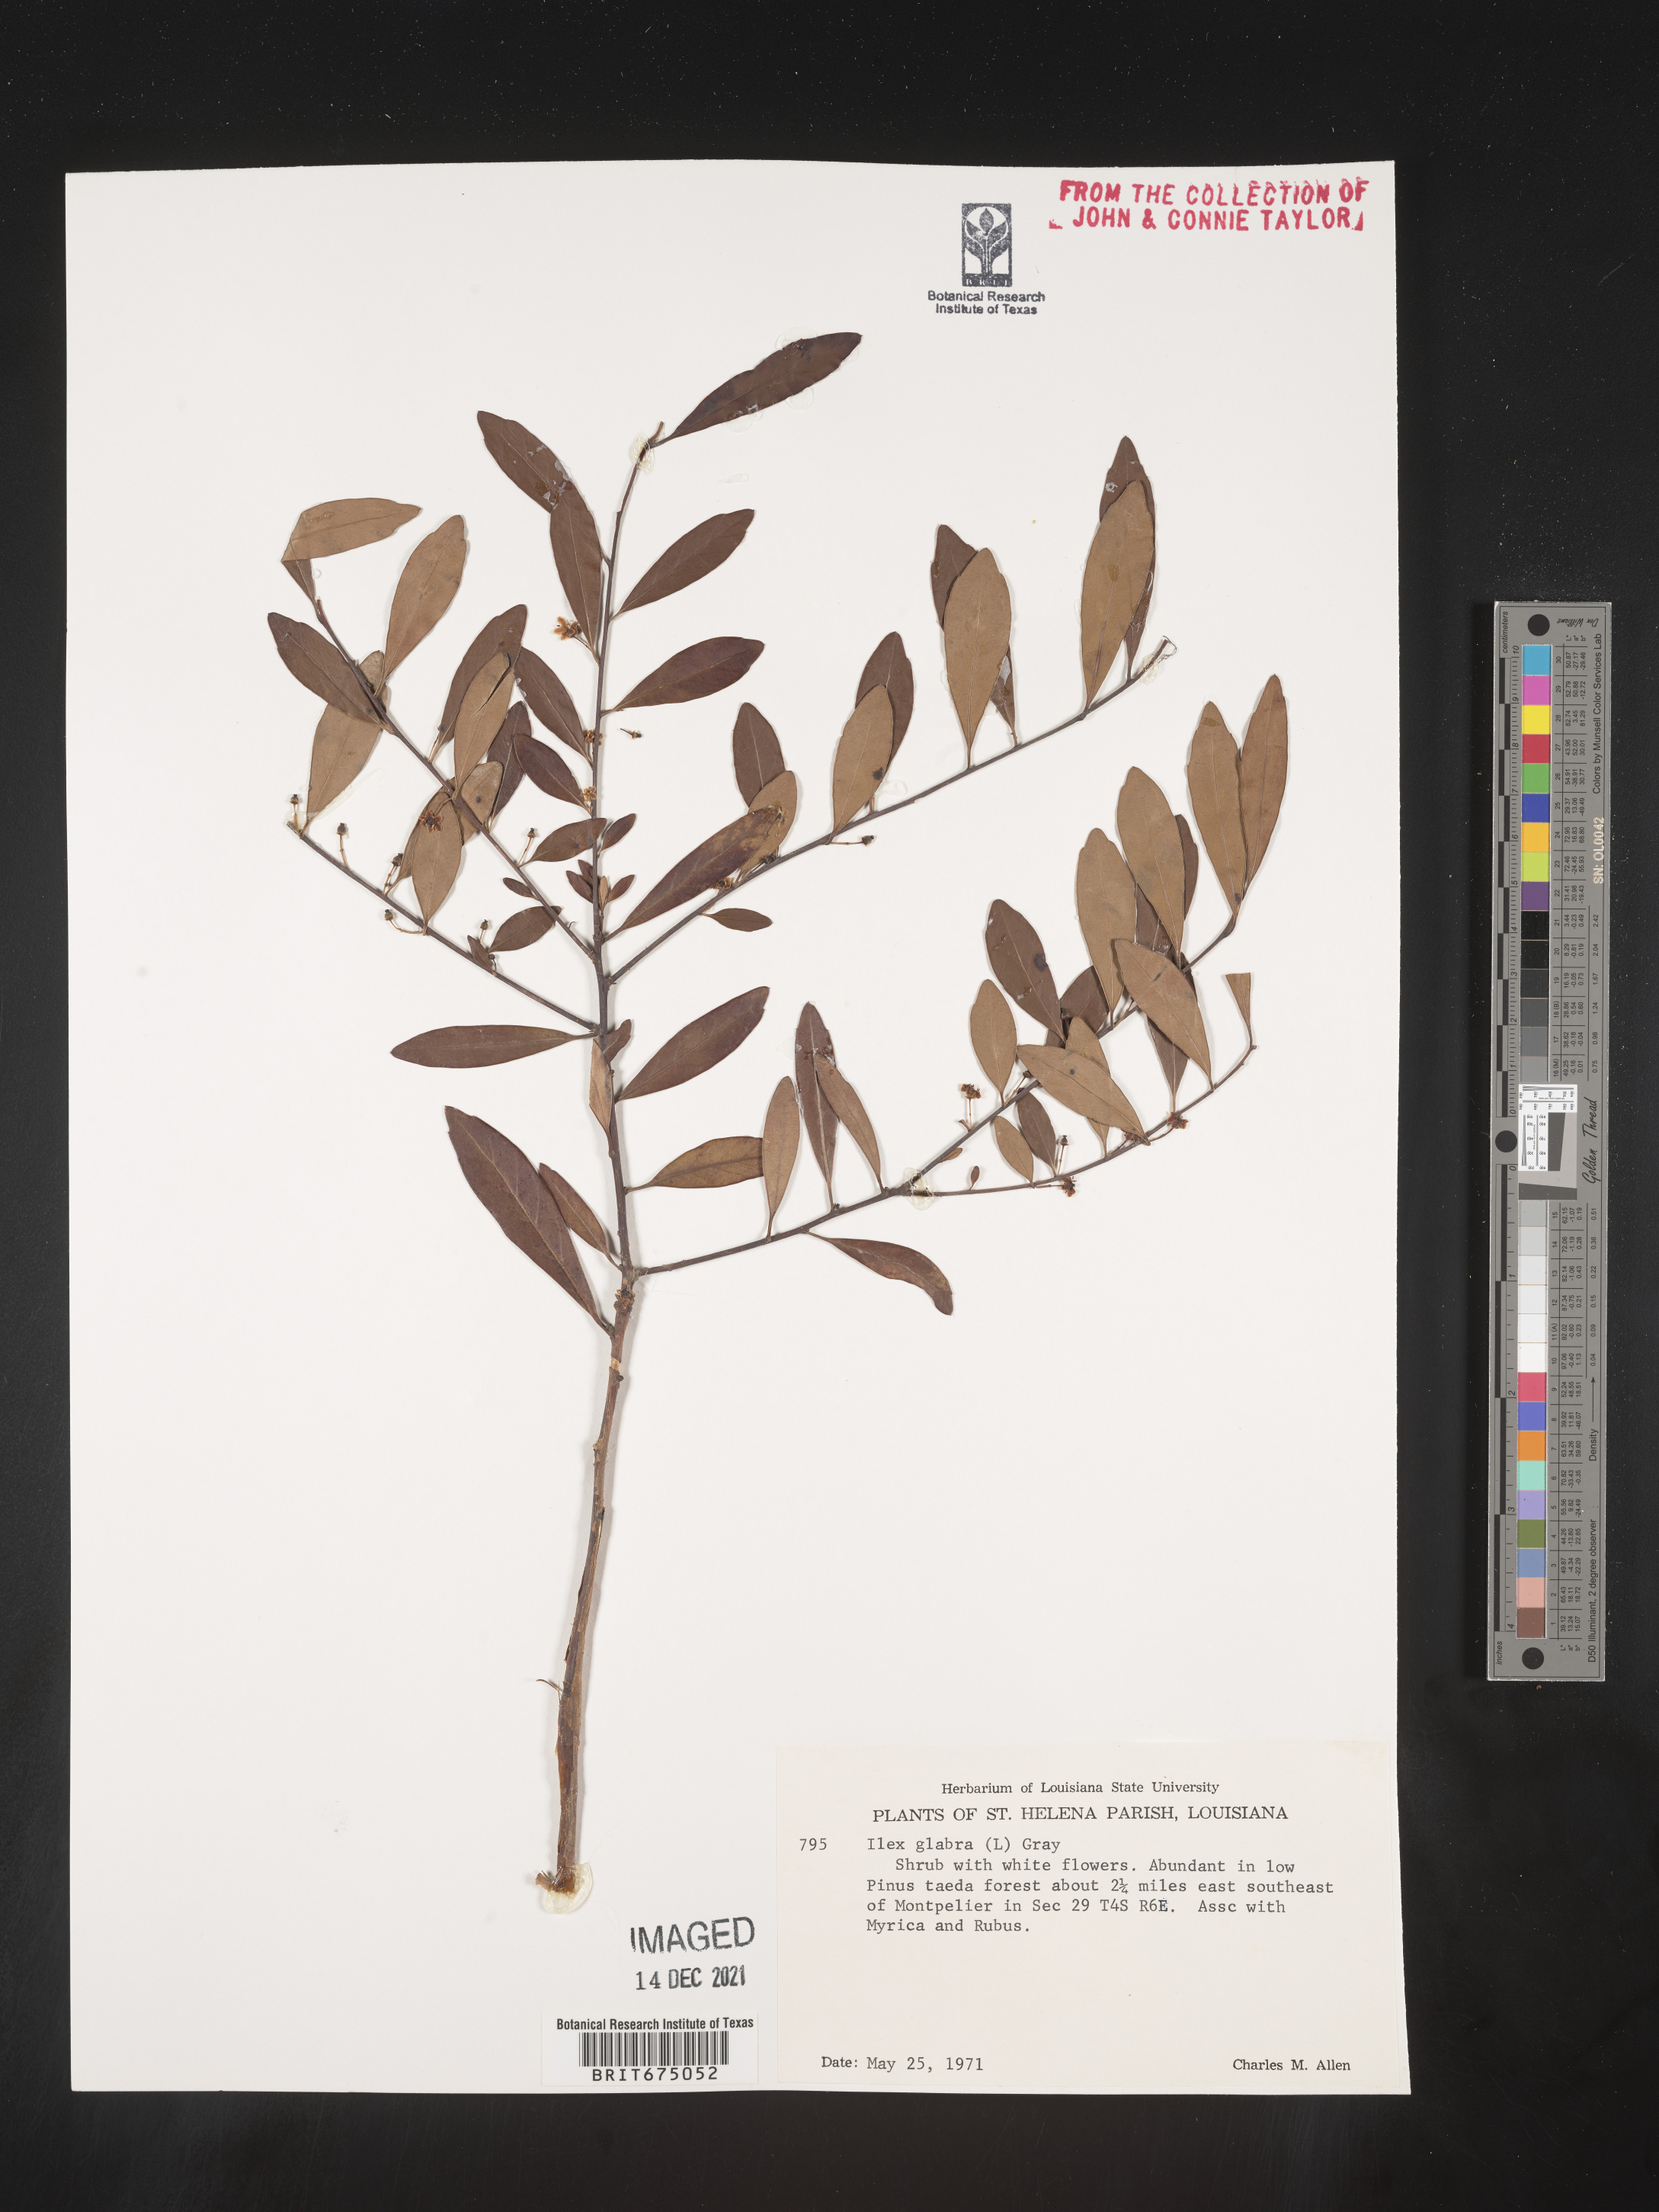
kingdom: Plantae
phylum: Tracheophyta
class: Magnoliopsida
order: Aquifoliales
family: Aquifoliaceae
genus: Ilex
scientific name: Ilex glabra
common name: Bitter gallberry
